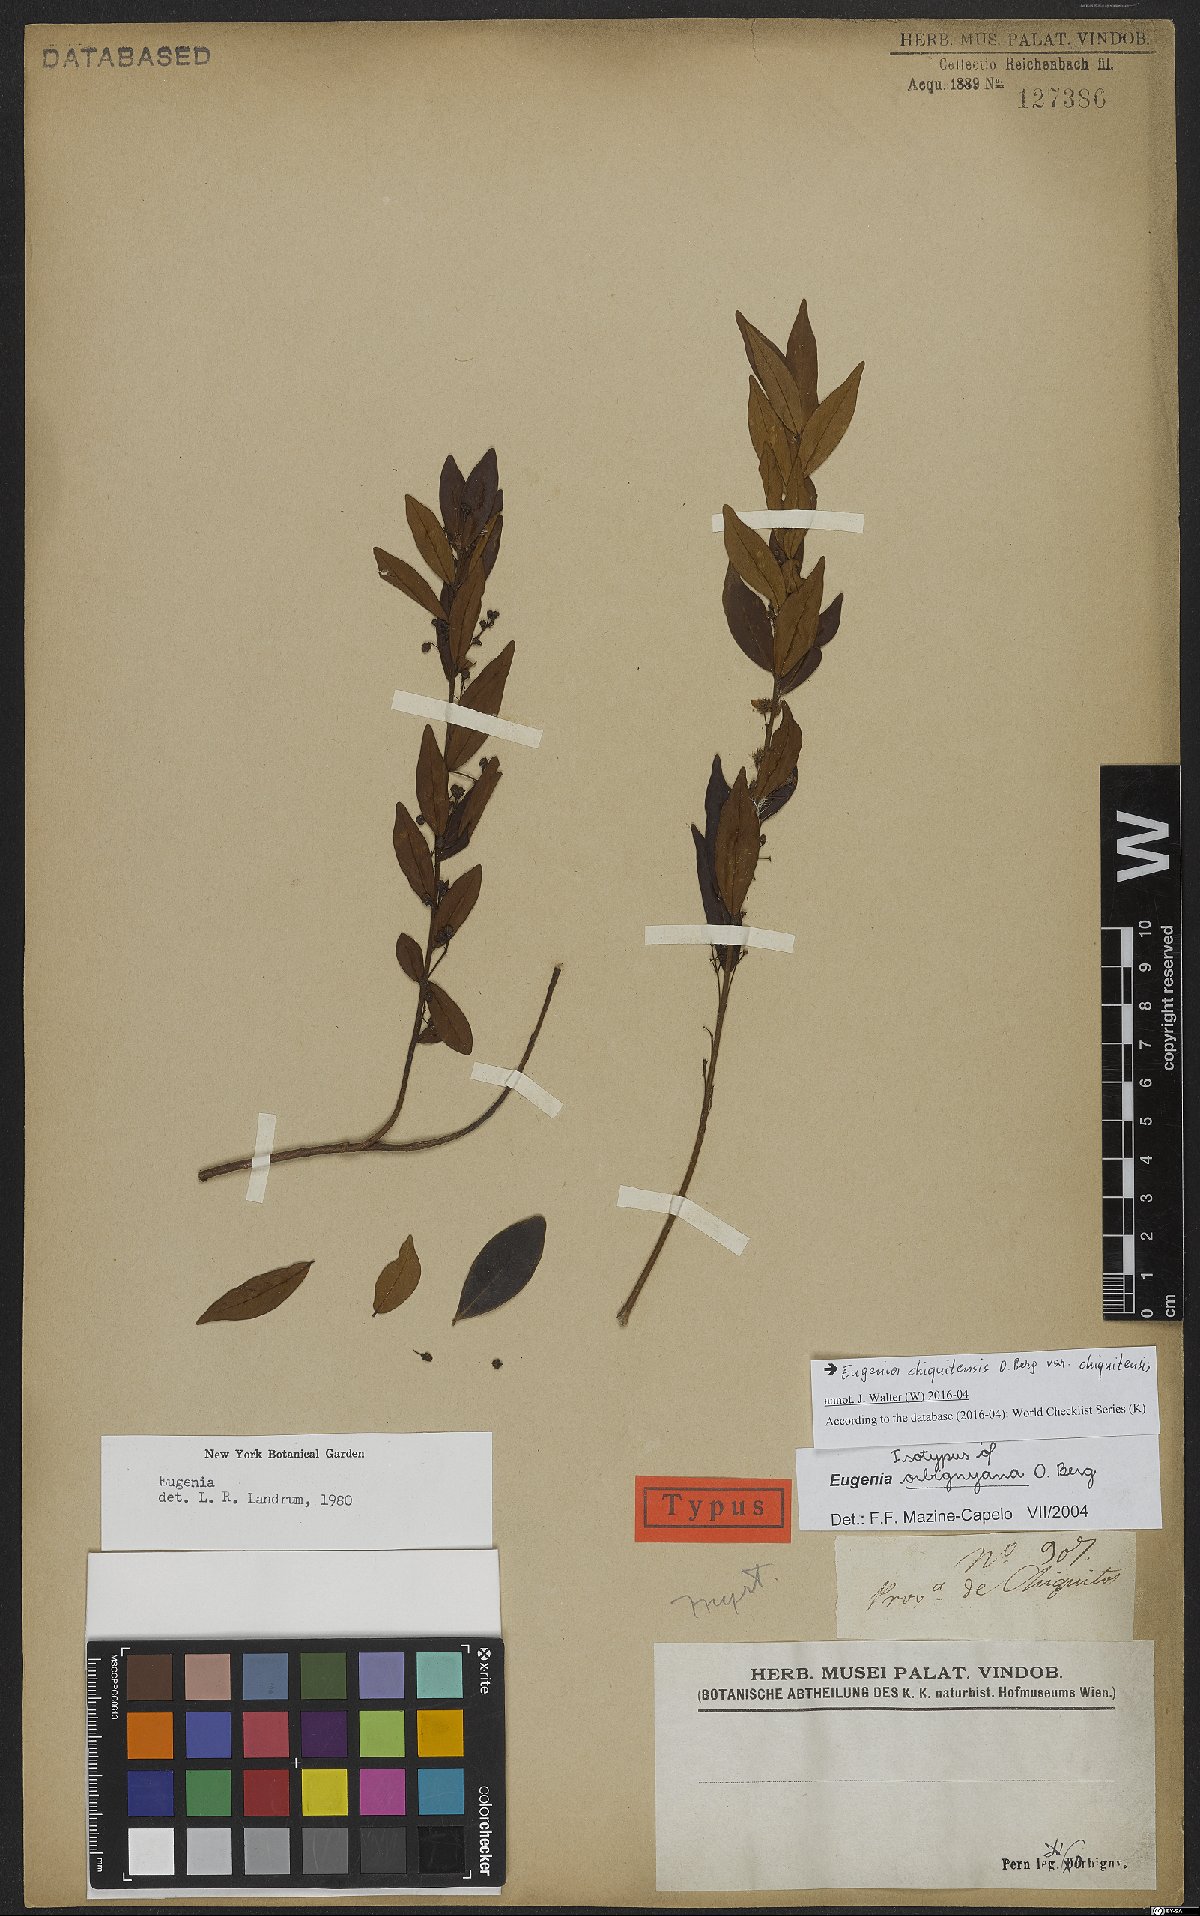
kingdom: Plantae
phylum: Tracheophyta
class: Magnoliopsida
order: Myrtales
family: Myrtaceae
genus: Eugenia
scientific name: Eugenia chiquitensis
